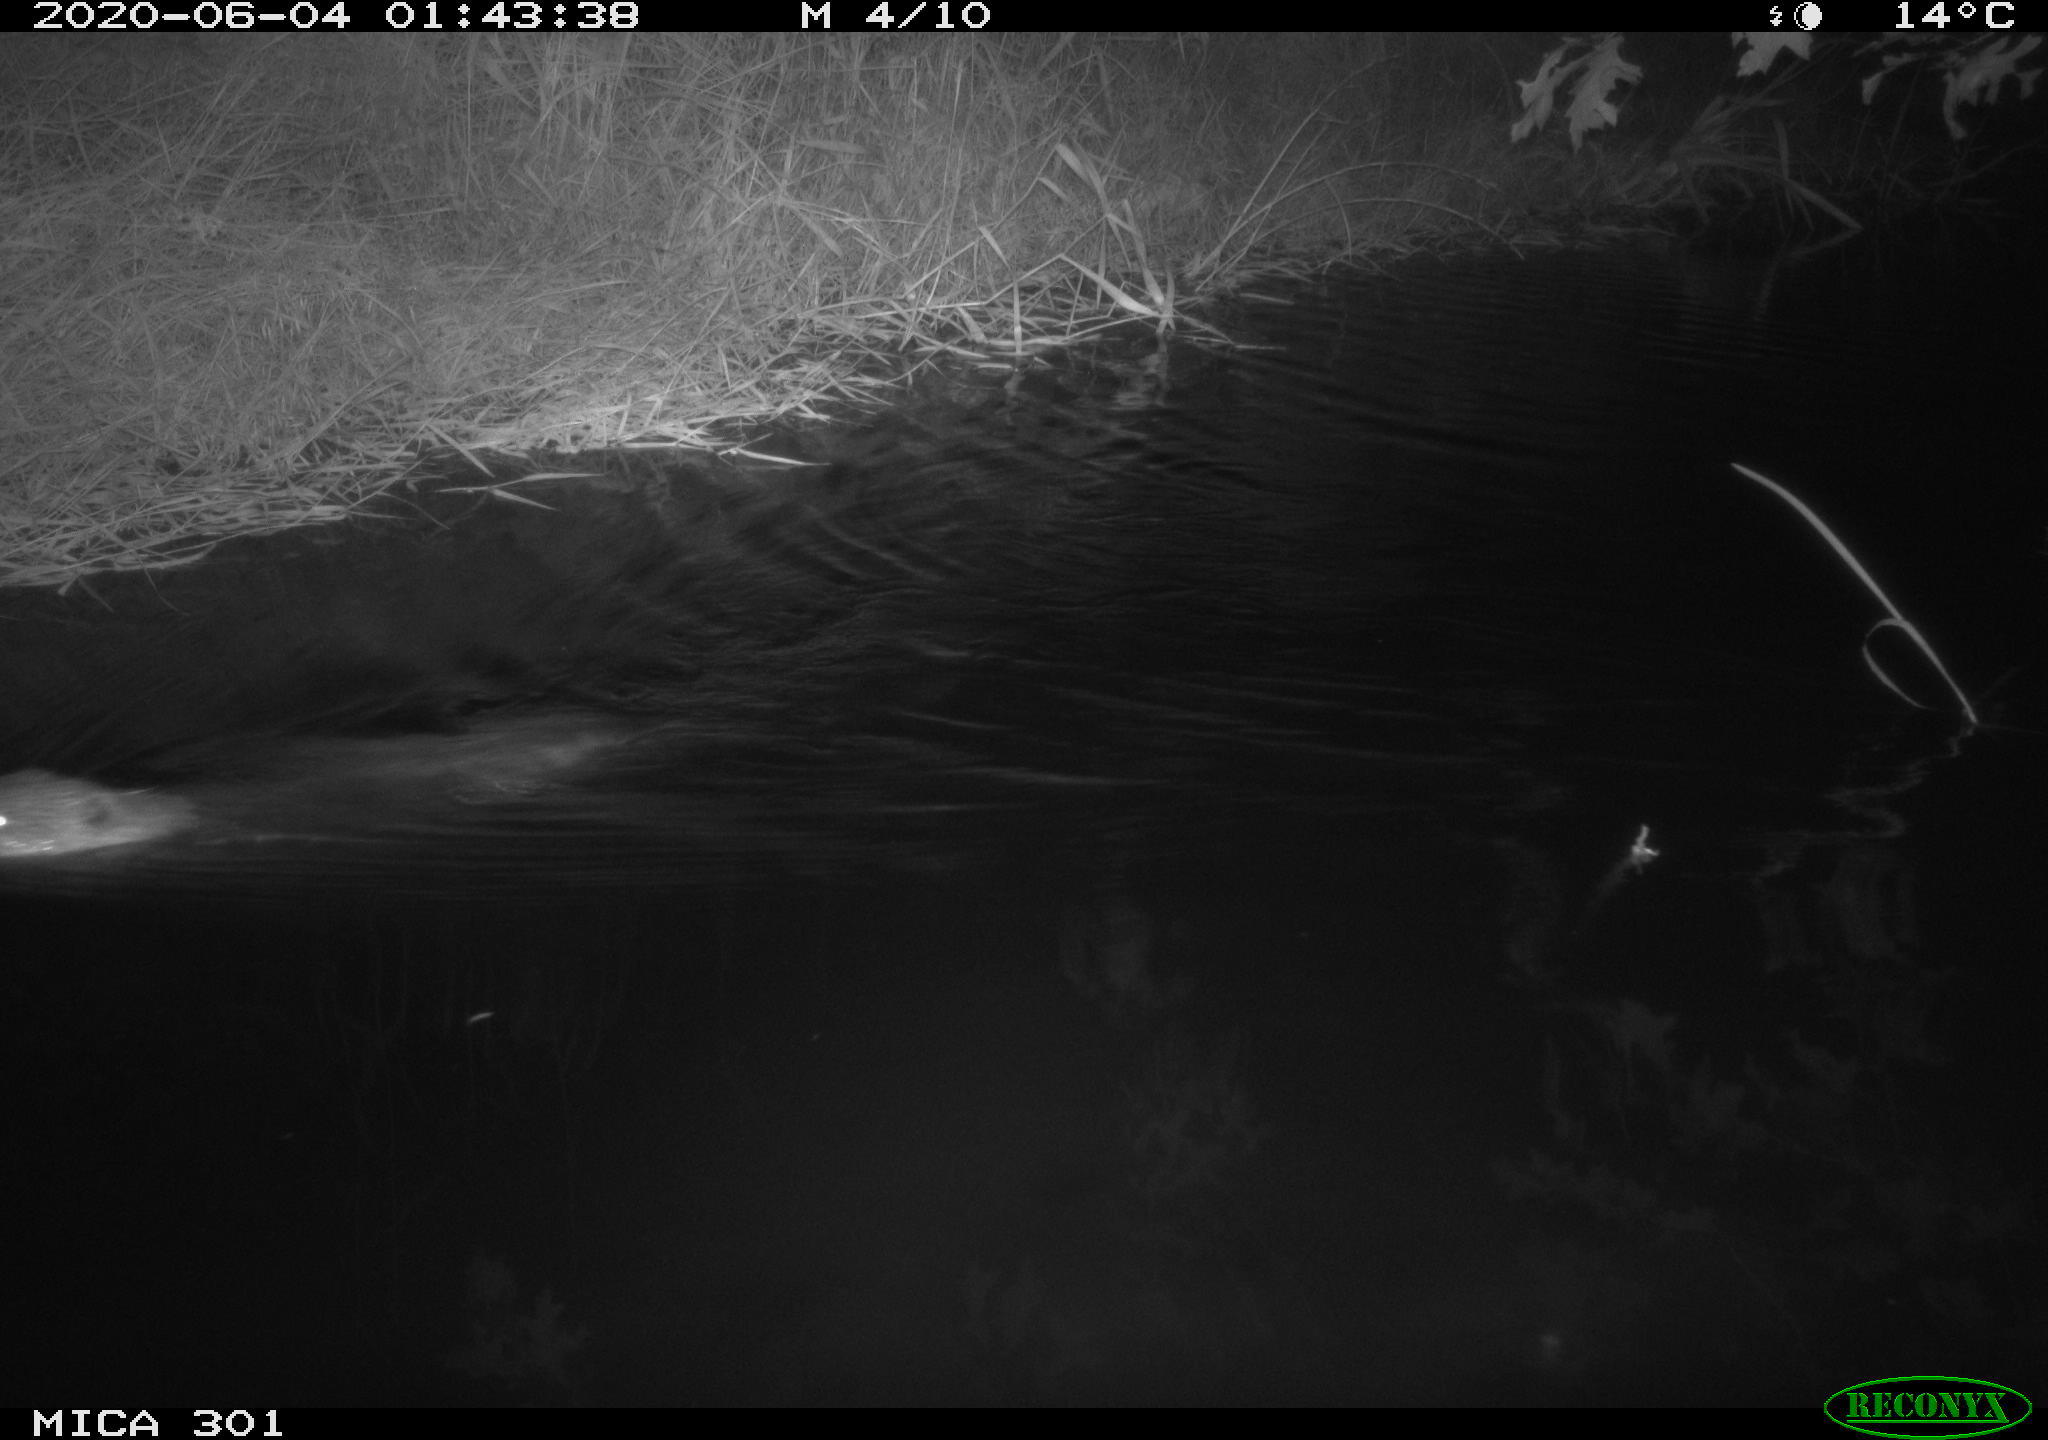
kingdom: Animalia
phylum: Chordata
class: Mammalia
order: Rodentia
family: Castoridae
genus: Castor
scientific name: Castor fiber
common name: Eurasian beaver
